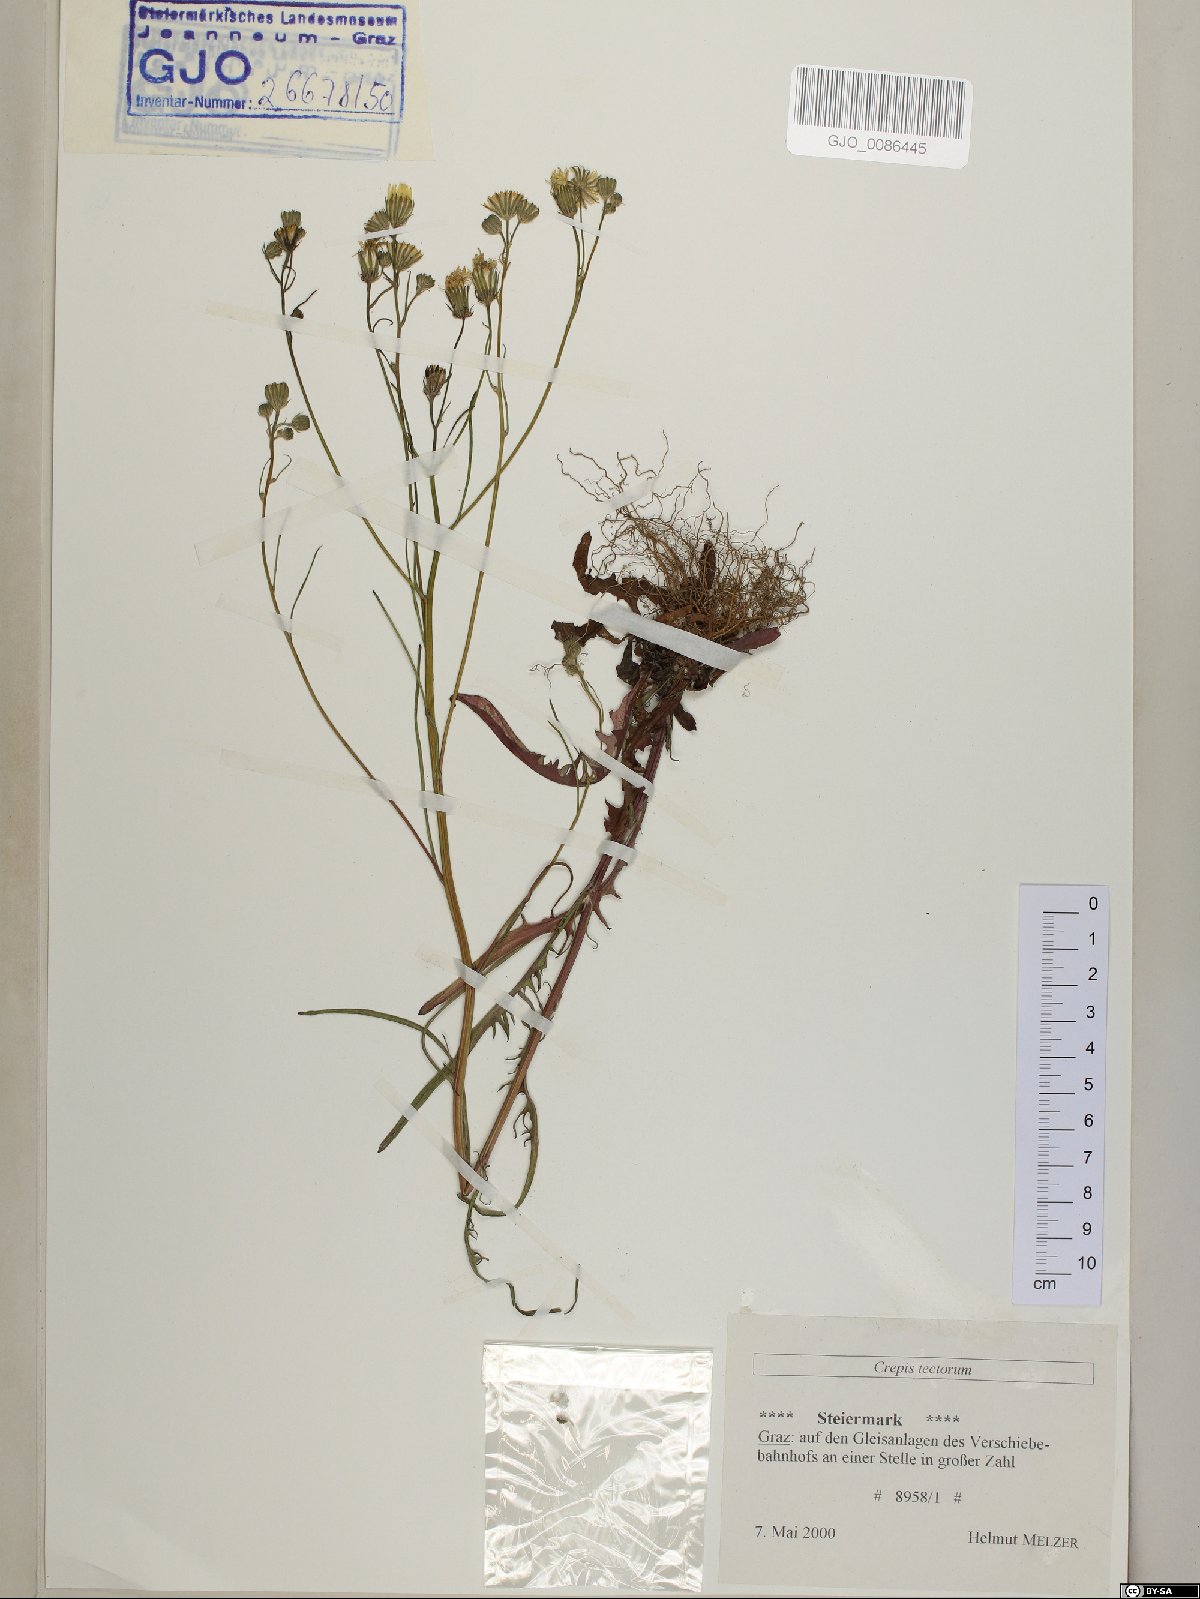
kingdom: Plantae
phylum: Tracheophyta
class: Magnoliopsida
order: Asterales
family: Asteraceae
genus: Crepis
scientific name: Crepis tectorum
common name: Narrow-leaved hawk's-beard
